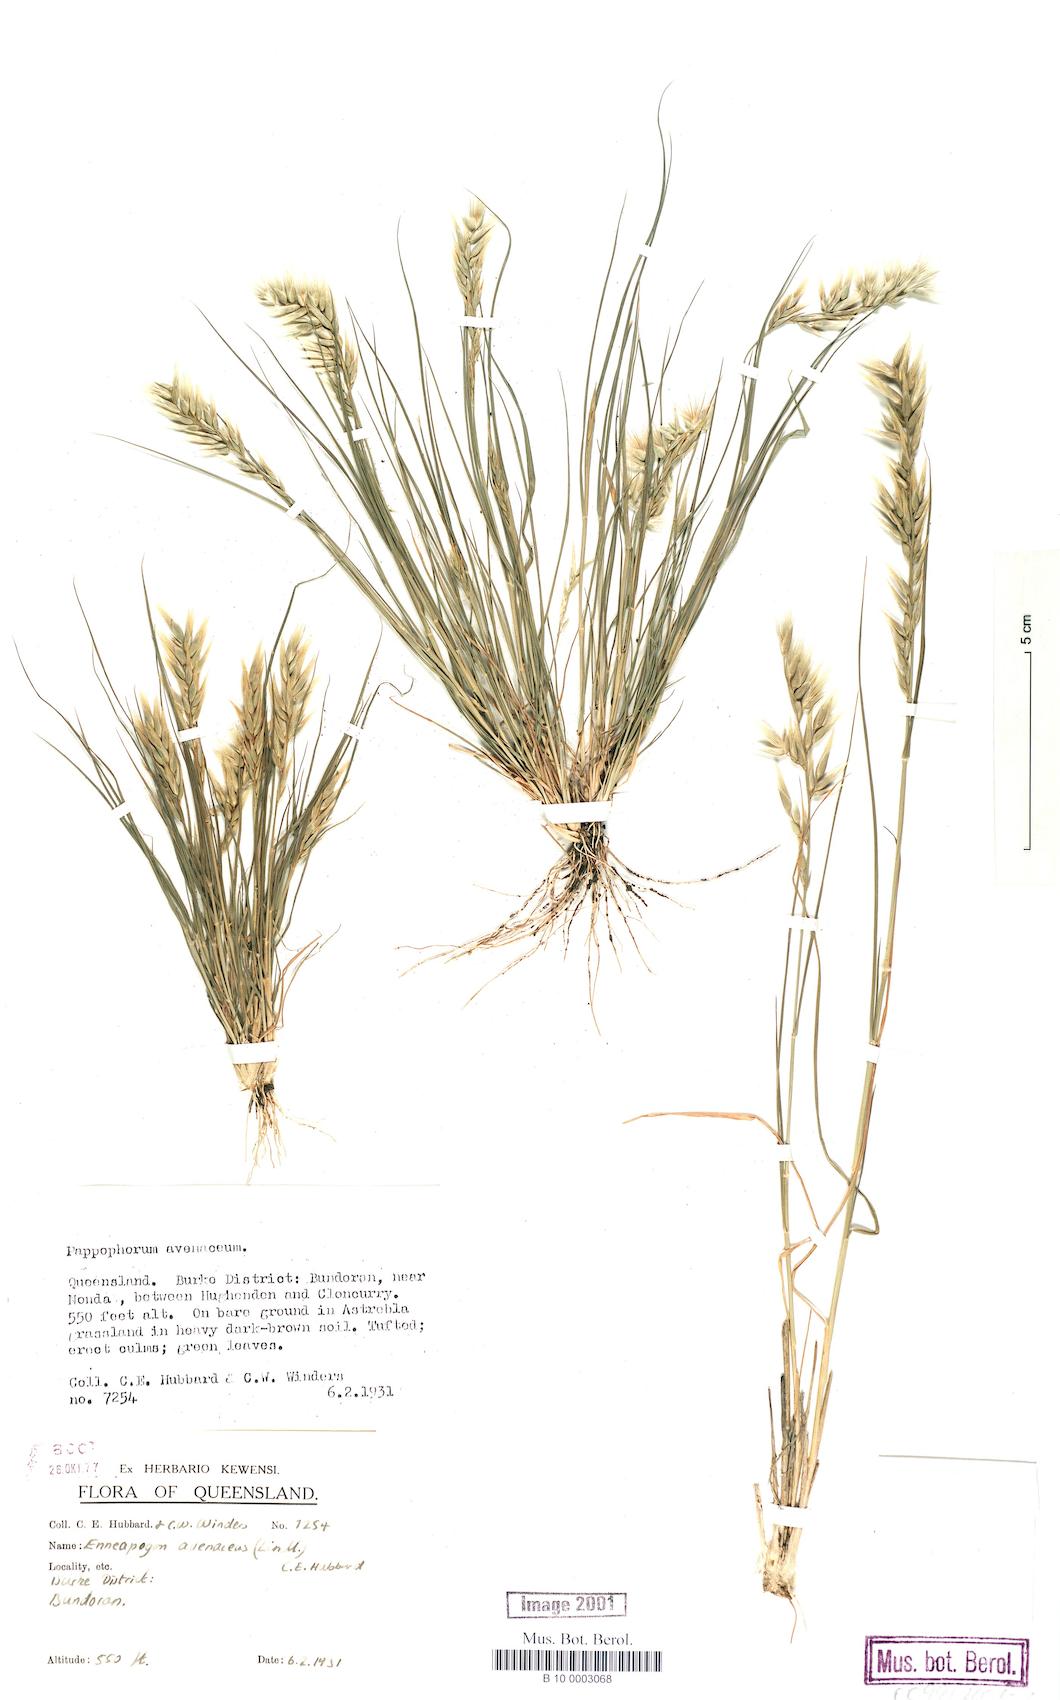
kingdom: Plantae
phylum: Tracheophyta
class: Liliopsida
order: Poales
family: Poaceae
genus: Enneapogon
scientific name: Enneapogon avenaceus
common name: Hairy oat grass
